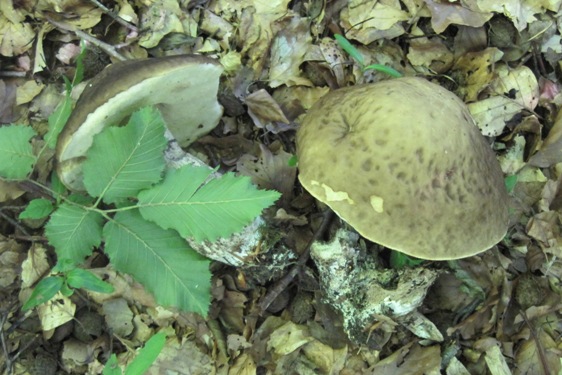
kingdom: Fungi
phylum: Basidiomycota
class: Agaricomycetes
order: Boletales
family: Boletaceae
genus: Leccinellum
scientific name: Leccinellum pseudoscabrum
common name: avnbøg-skælrørhat
